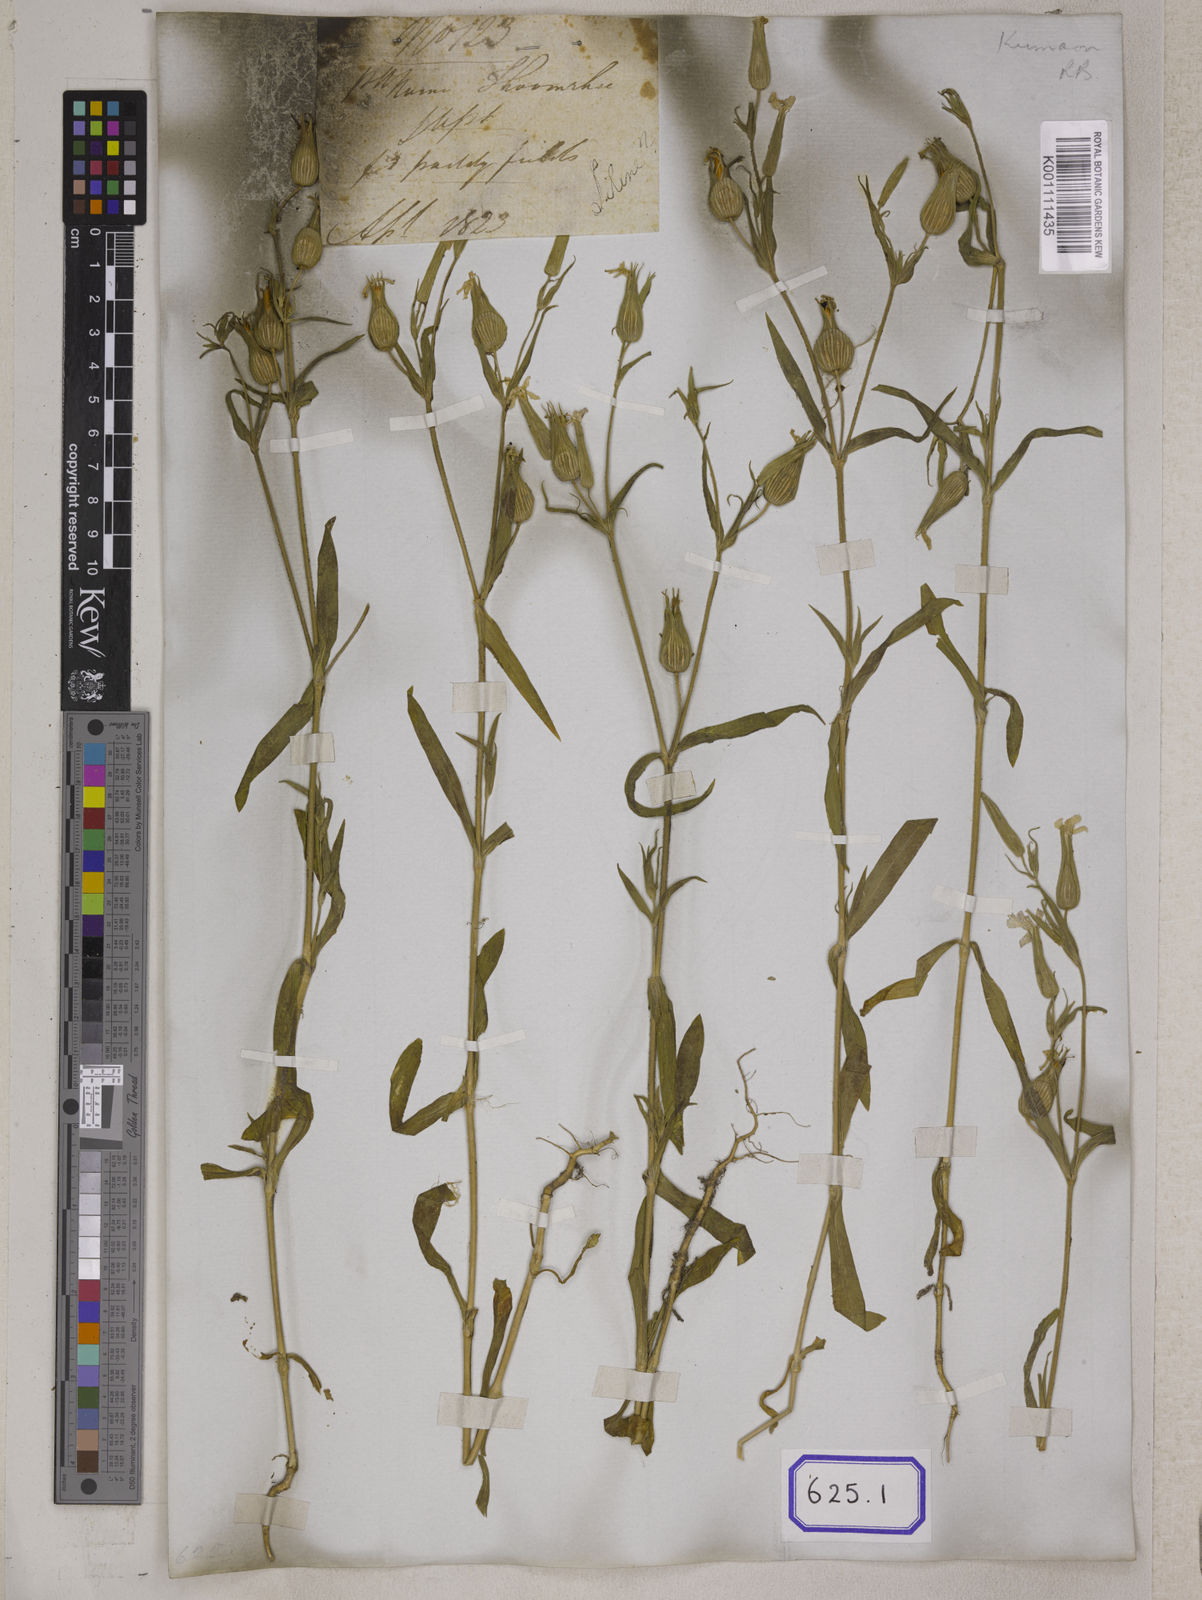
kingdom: Plantae
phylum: Tracheophyta
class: Magnoliopsida
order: Caryophyllales
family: Caryophyllaceae
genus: Silene
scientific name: Silene conoidea
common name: Weed silene
